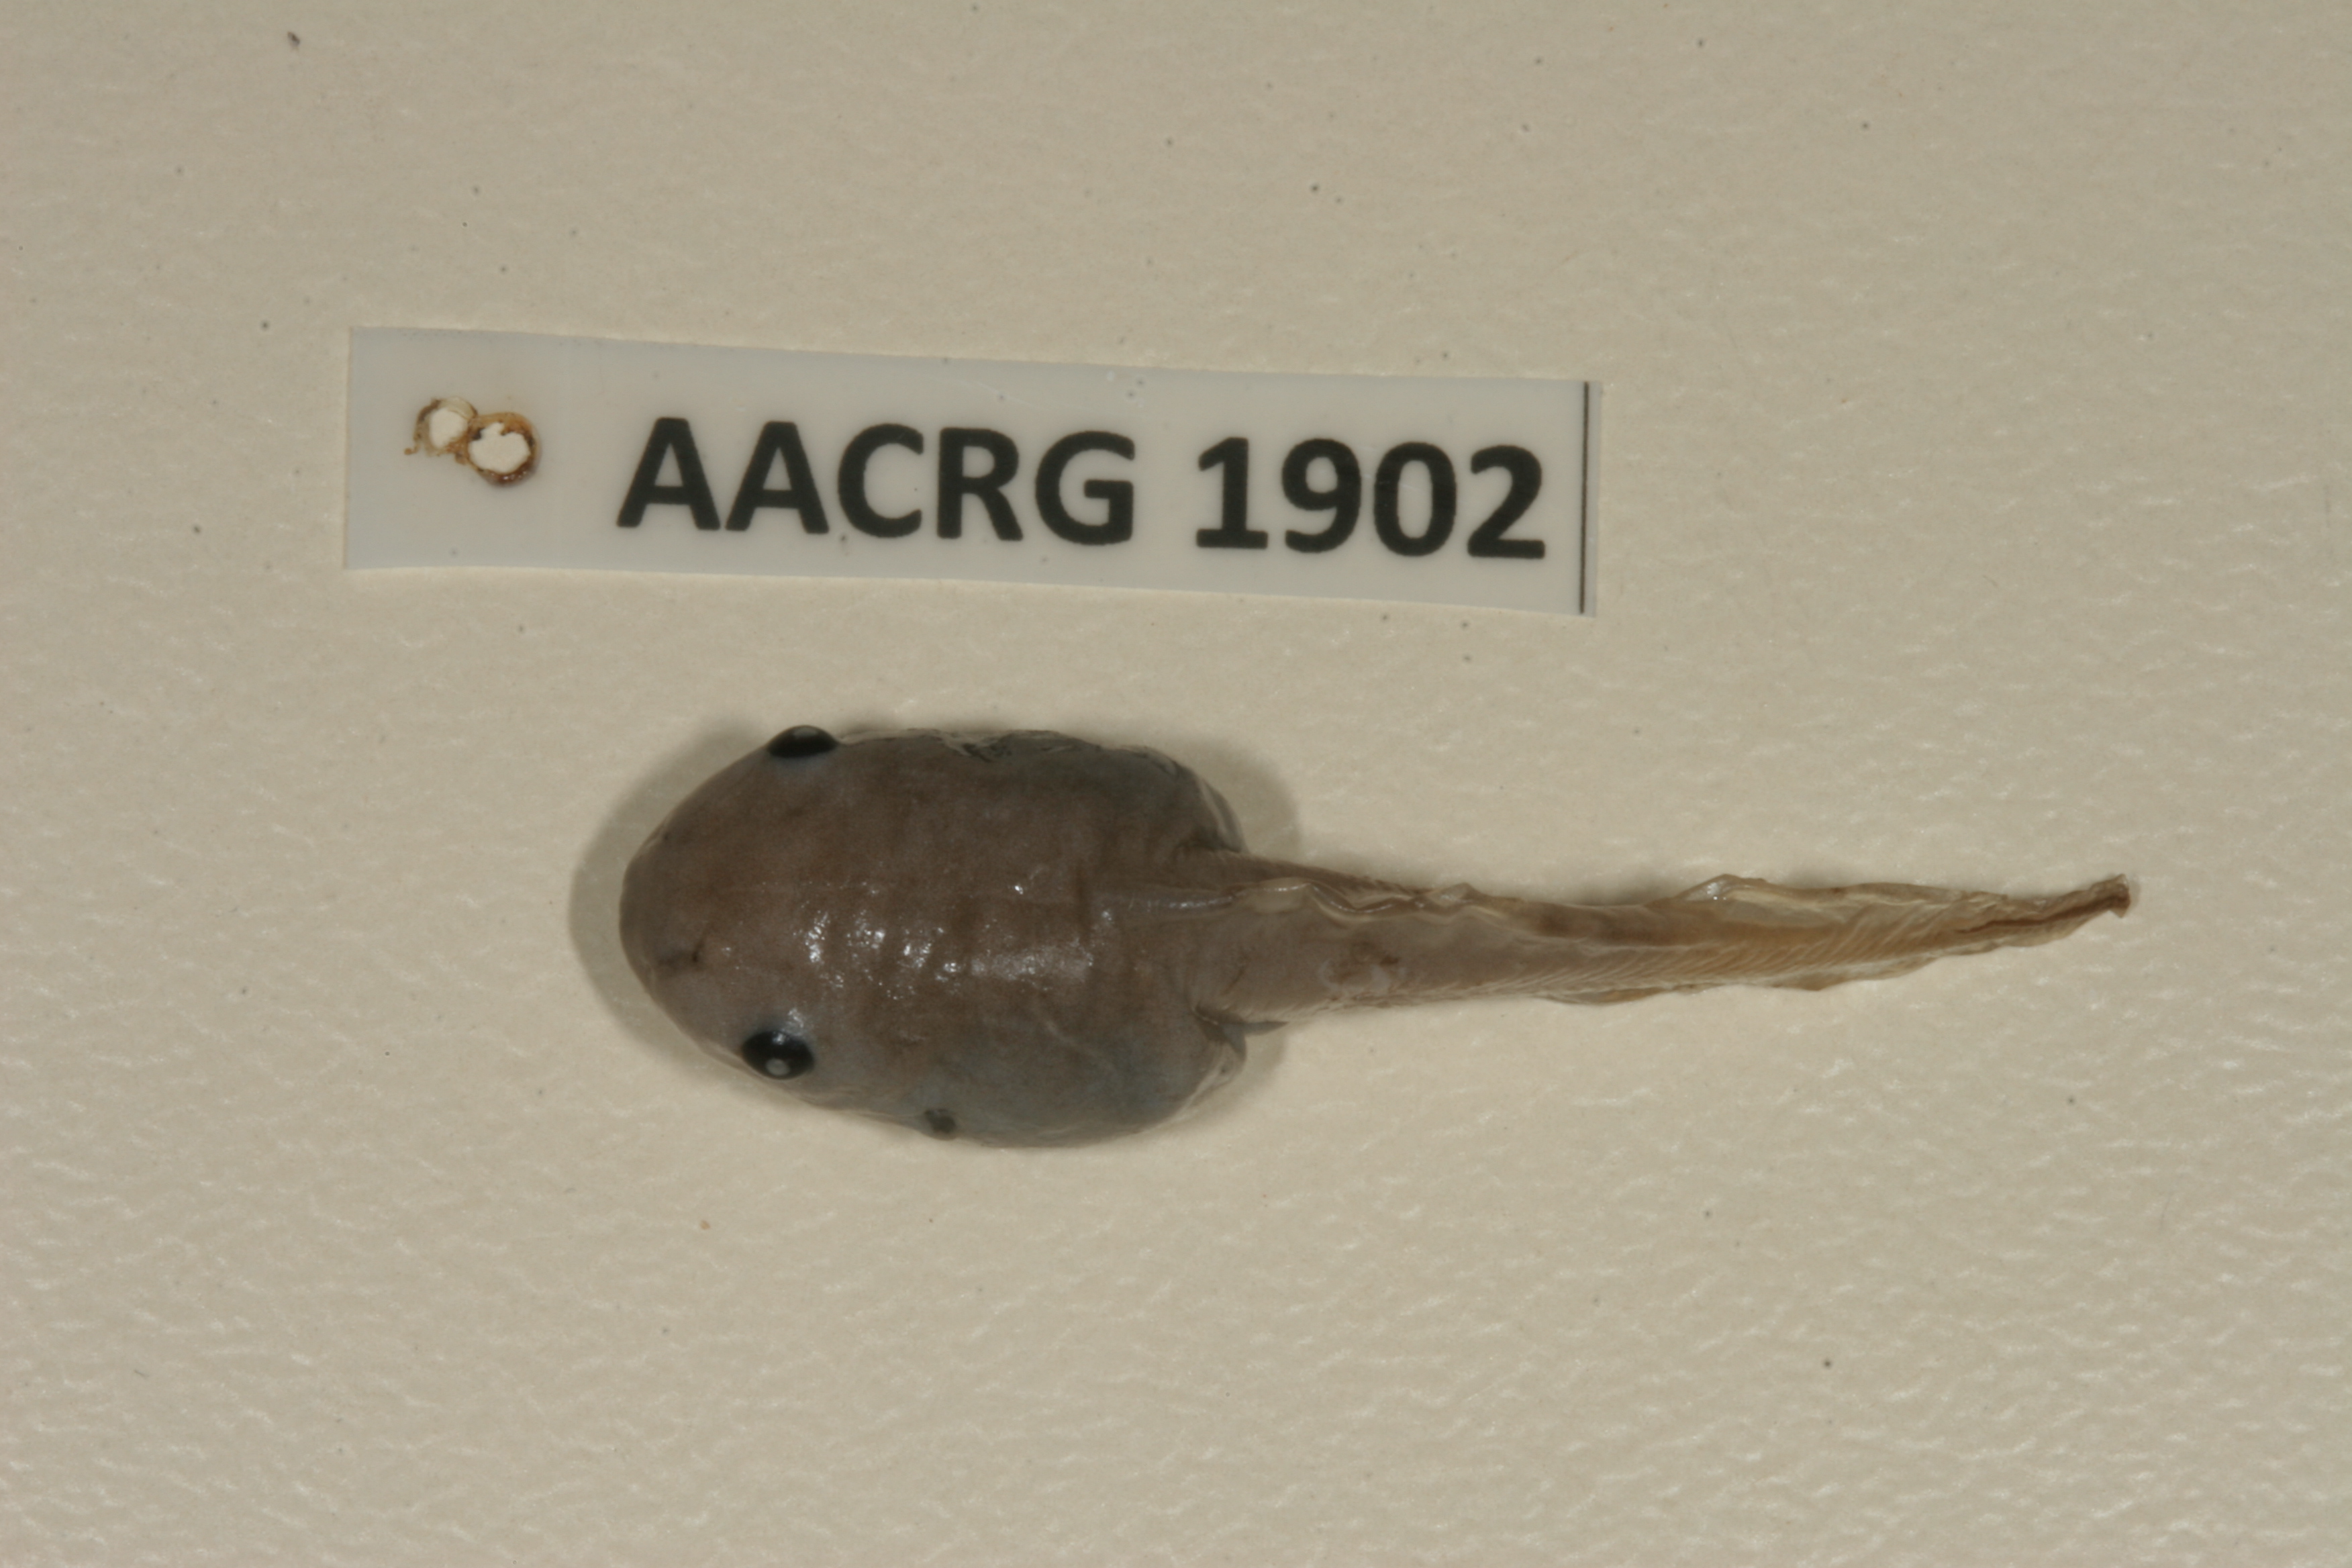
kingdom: Animalia
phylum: Chordata
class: Amphibia
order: Anura
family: Hemisotidae
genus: Hemisus
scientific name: Hemisus marmoratus
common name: Mottled shovel-nosed frog
